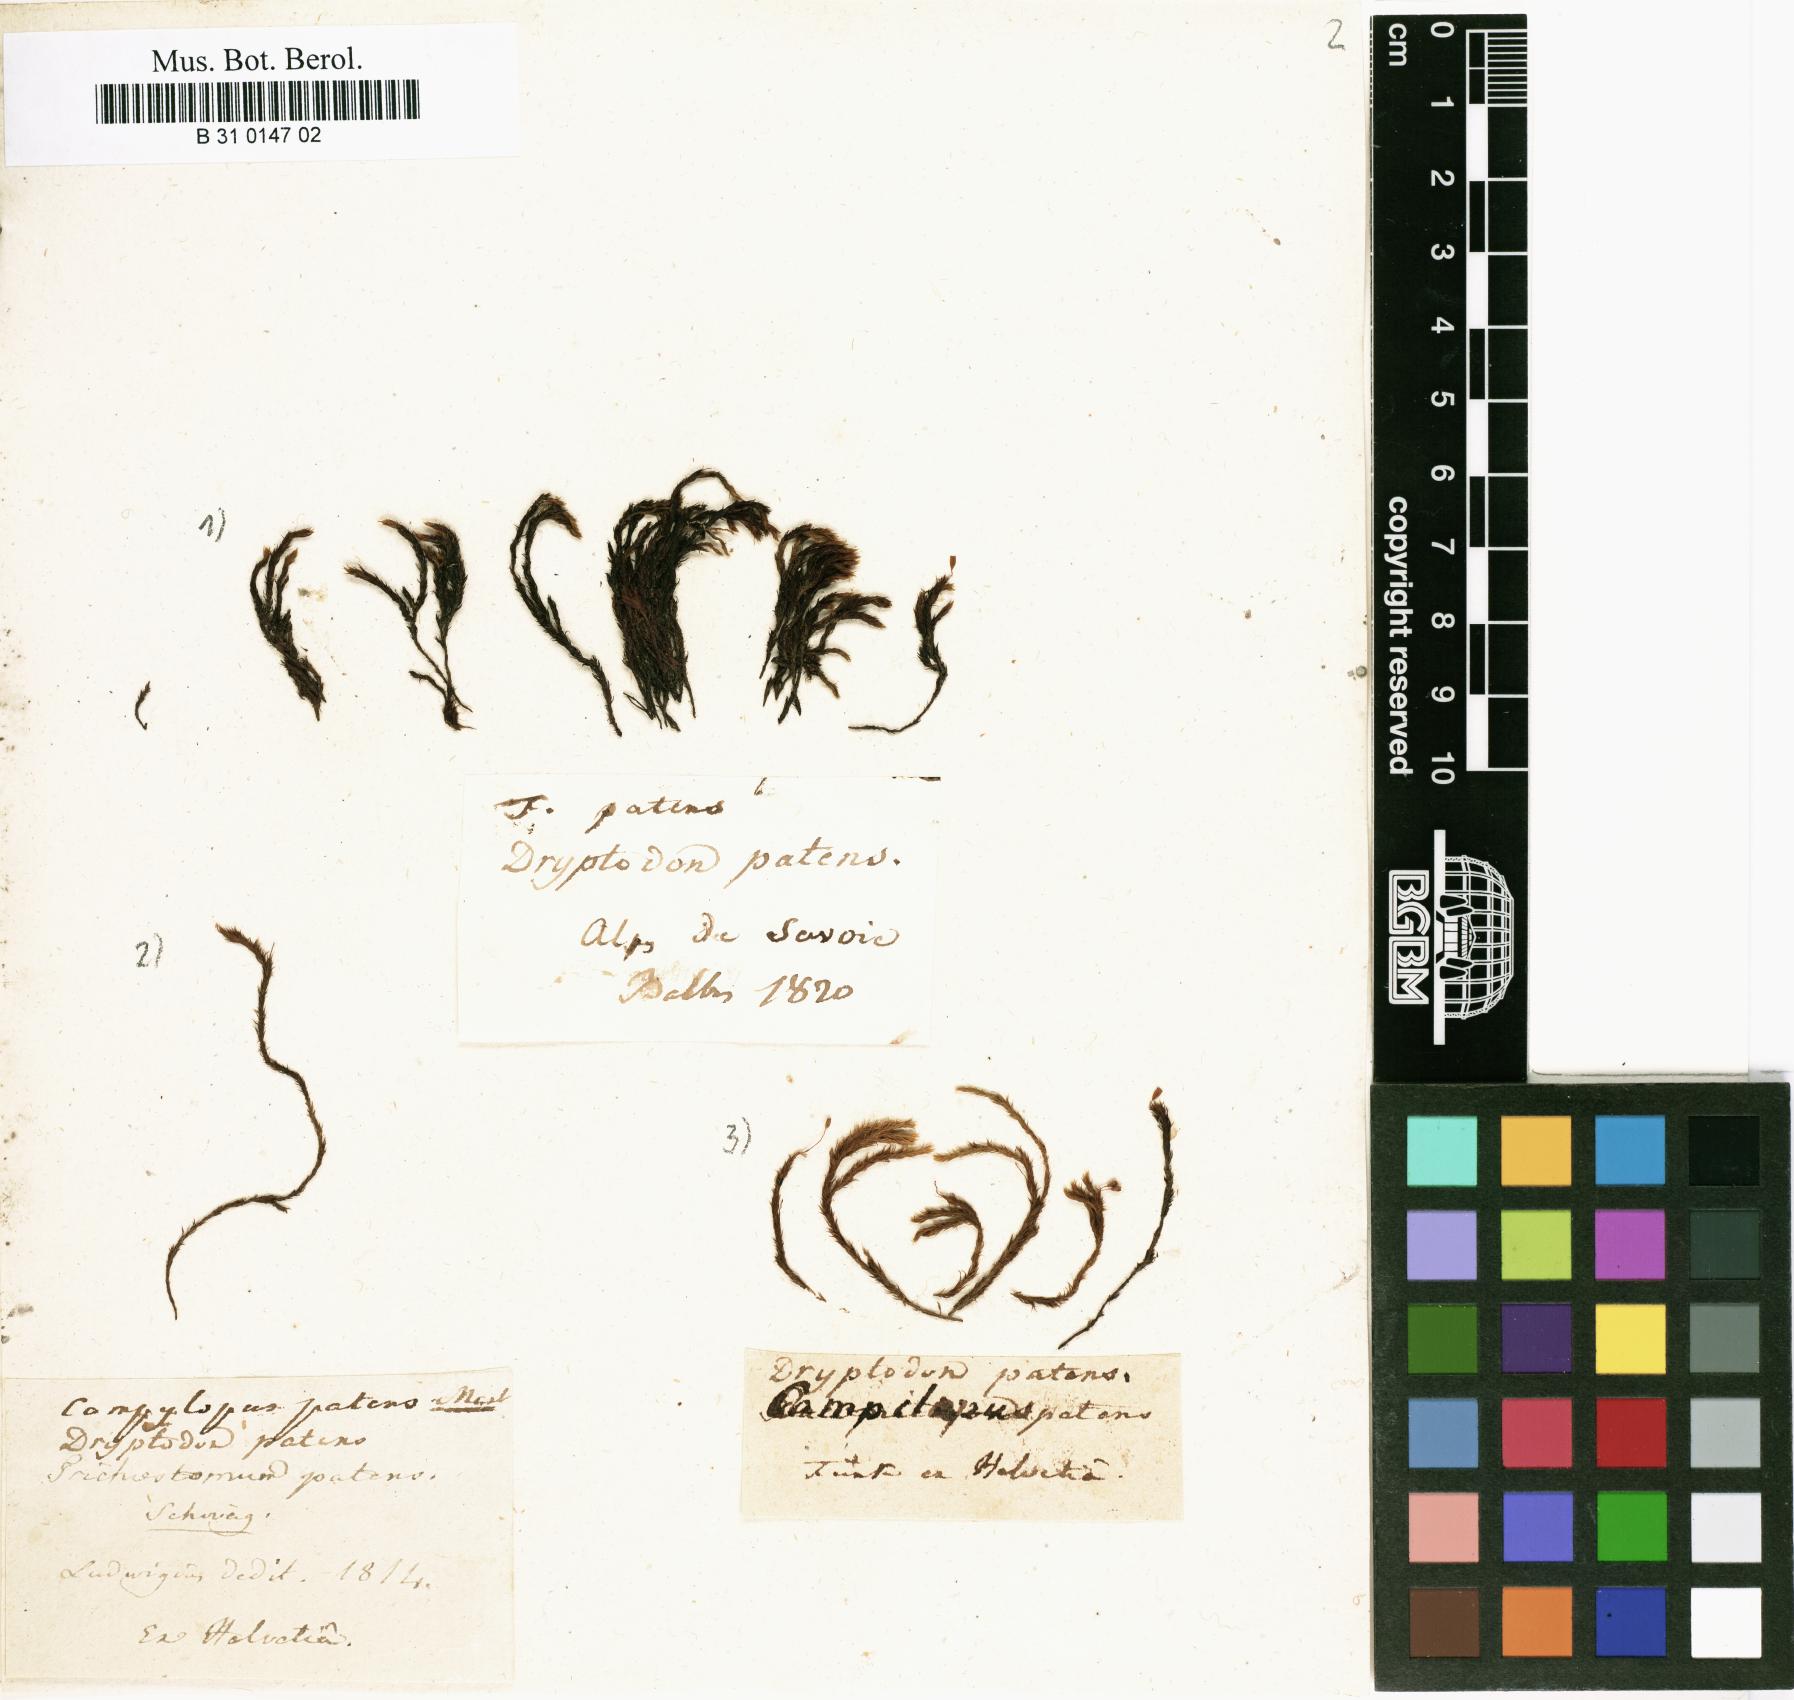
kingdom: Plantae
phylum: Bryophyta
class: Bryopsida
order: Grimmiales
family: Grimmiaceae
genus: Grimmia
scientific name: Grimmia ramondii
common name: Spreading-leaved grimmia
